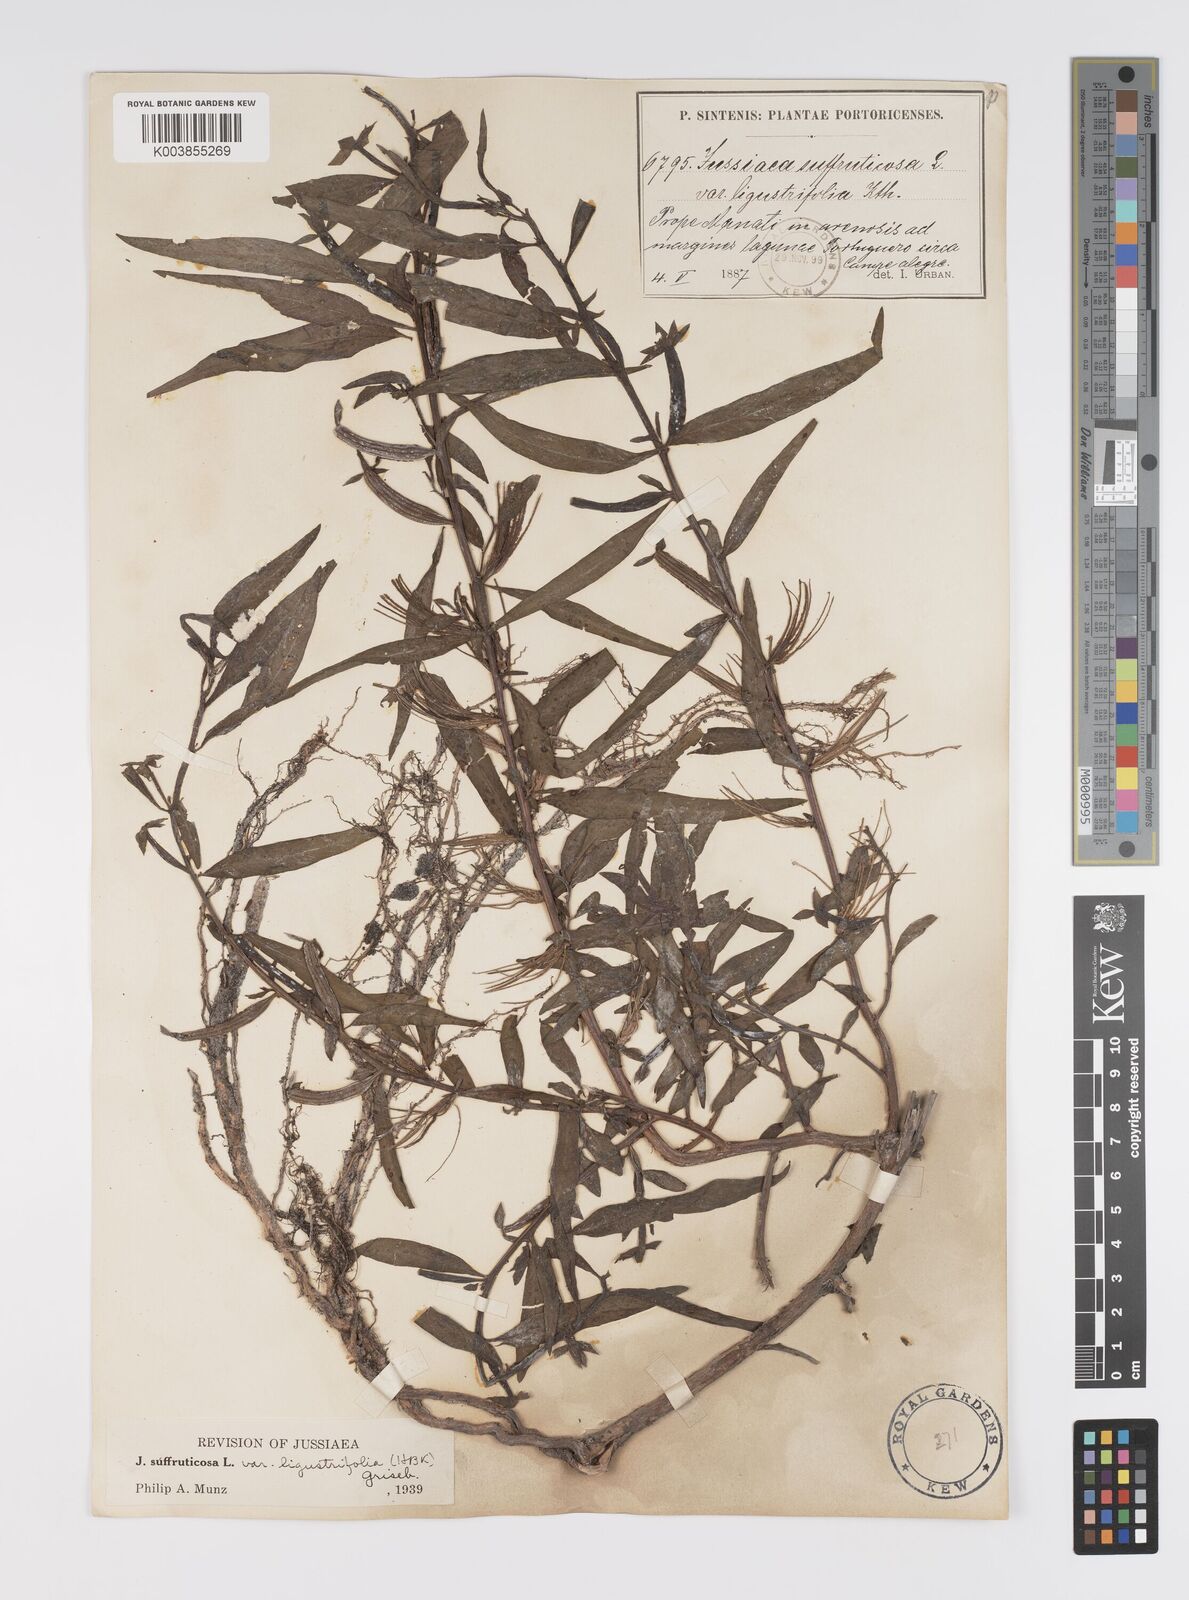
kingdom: Plantae
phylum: Tracheophyta
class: Magnoliopsida
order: Myrtales
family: Onagraceae
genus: Ludwigia
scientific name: Ludwigia octovalvis
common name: Water-primrose
